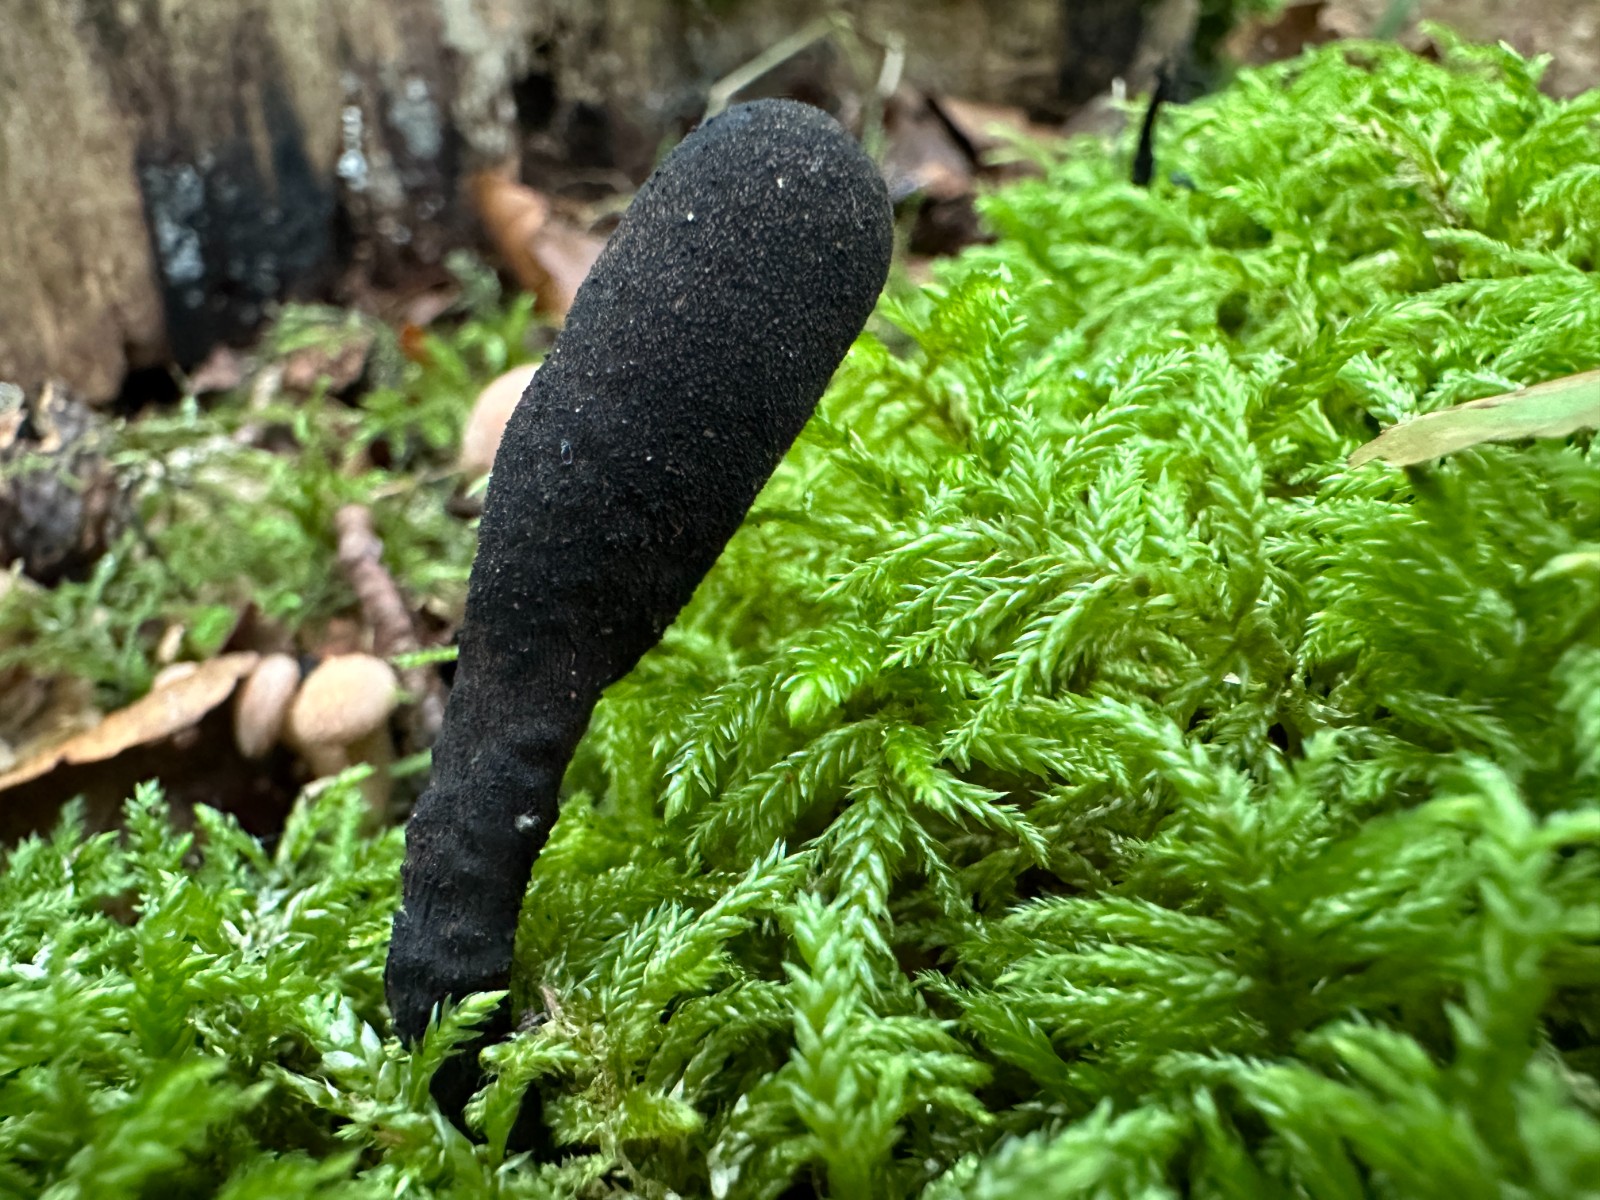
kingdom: Fungi
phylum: Ascomycota
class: Sordariomycetes
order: Xylariales
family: Xylariaceae
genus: Xylaria
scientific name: Xylaria polymorpha
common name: kølle-stødsvamp
